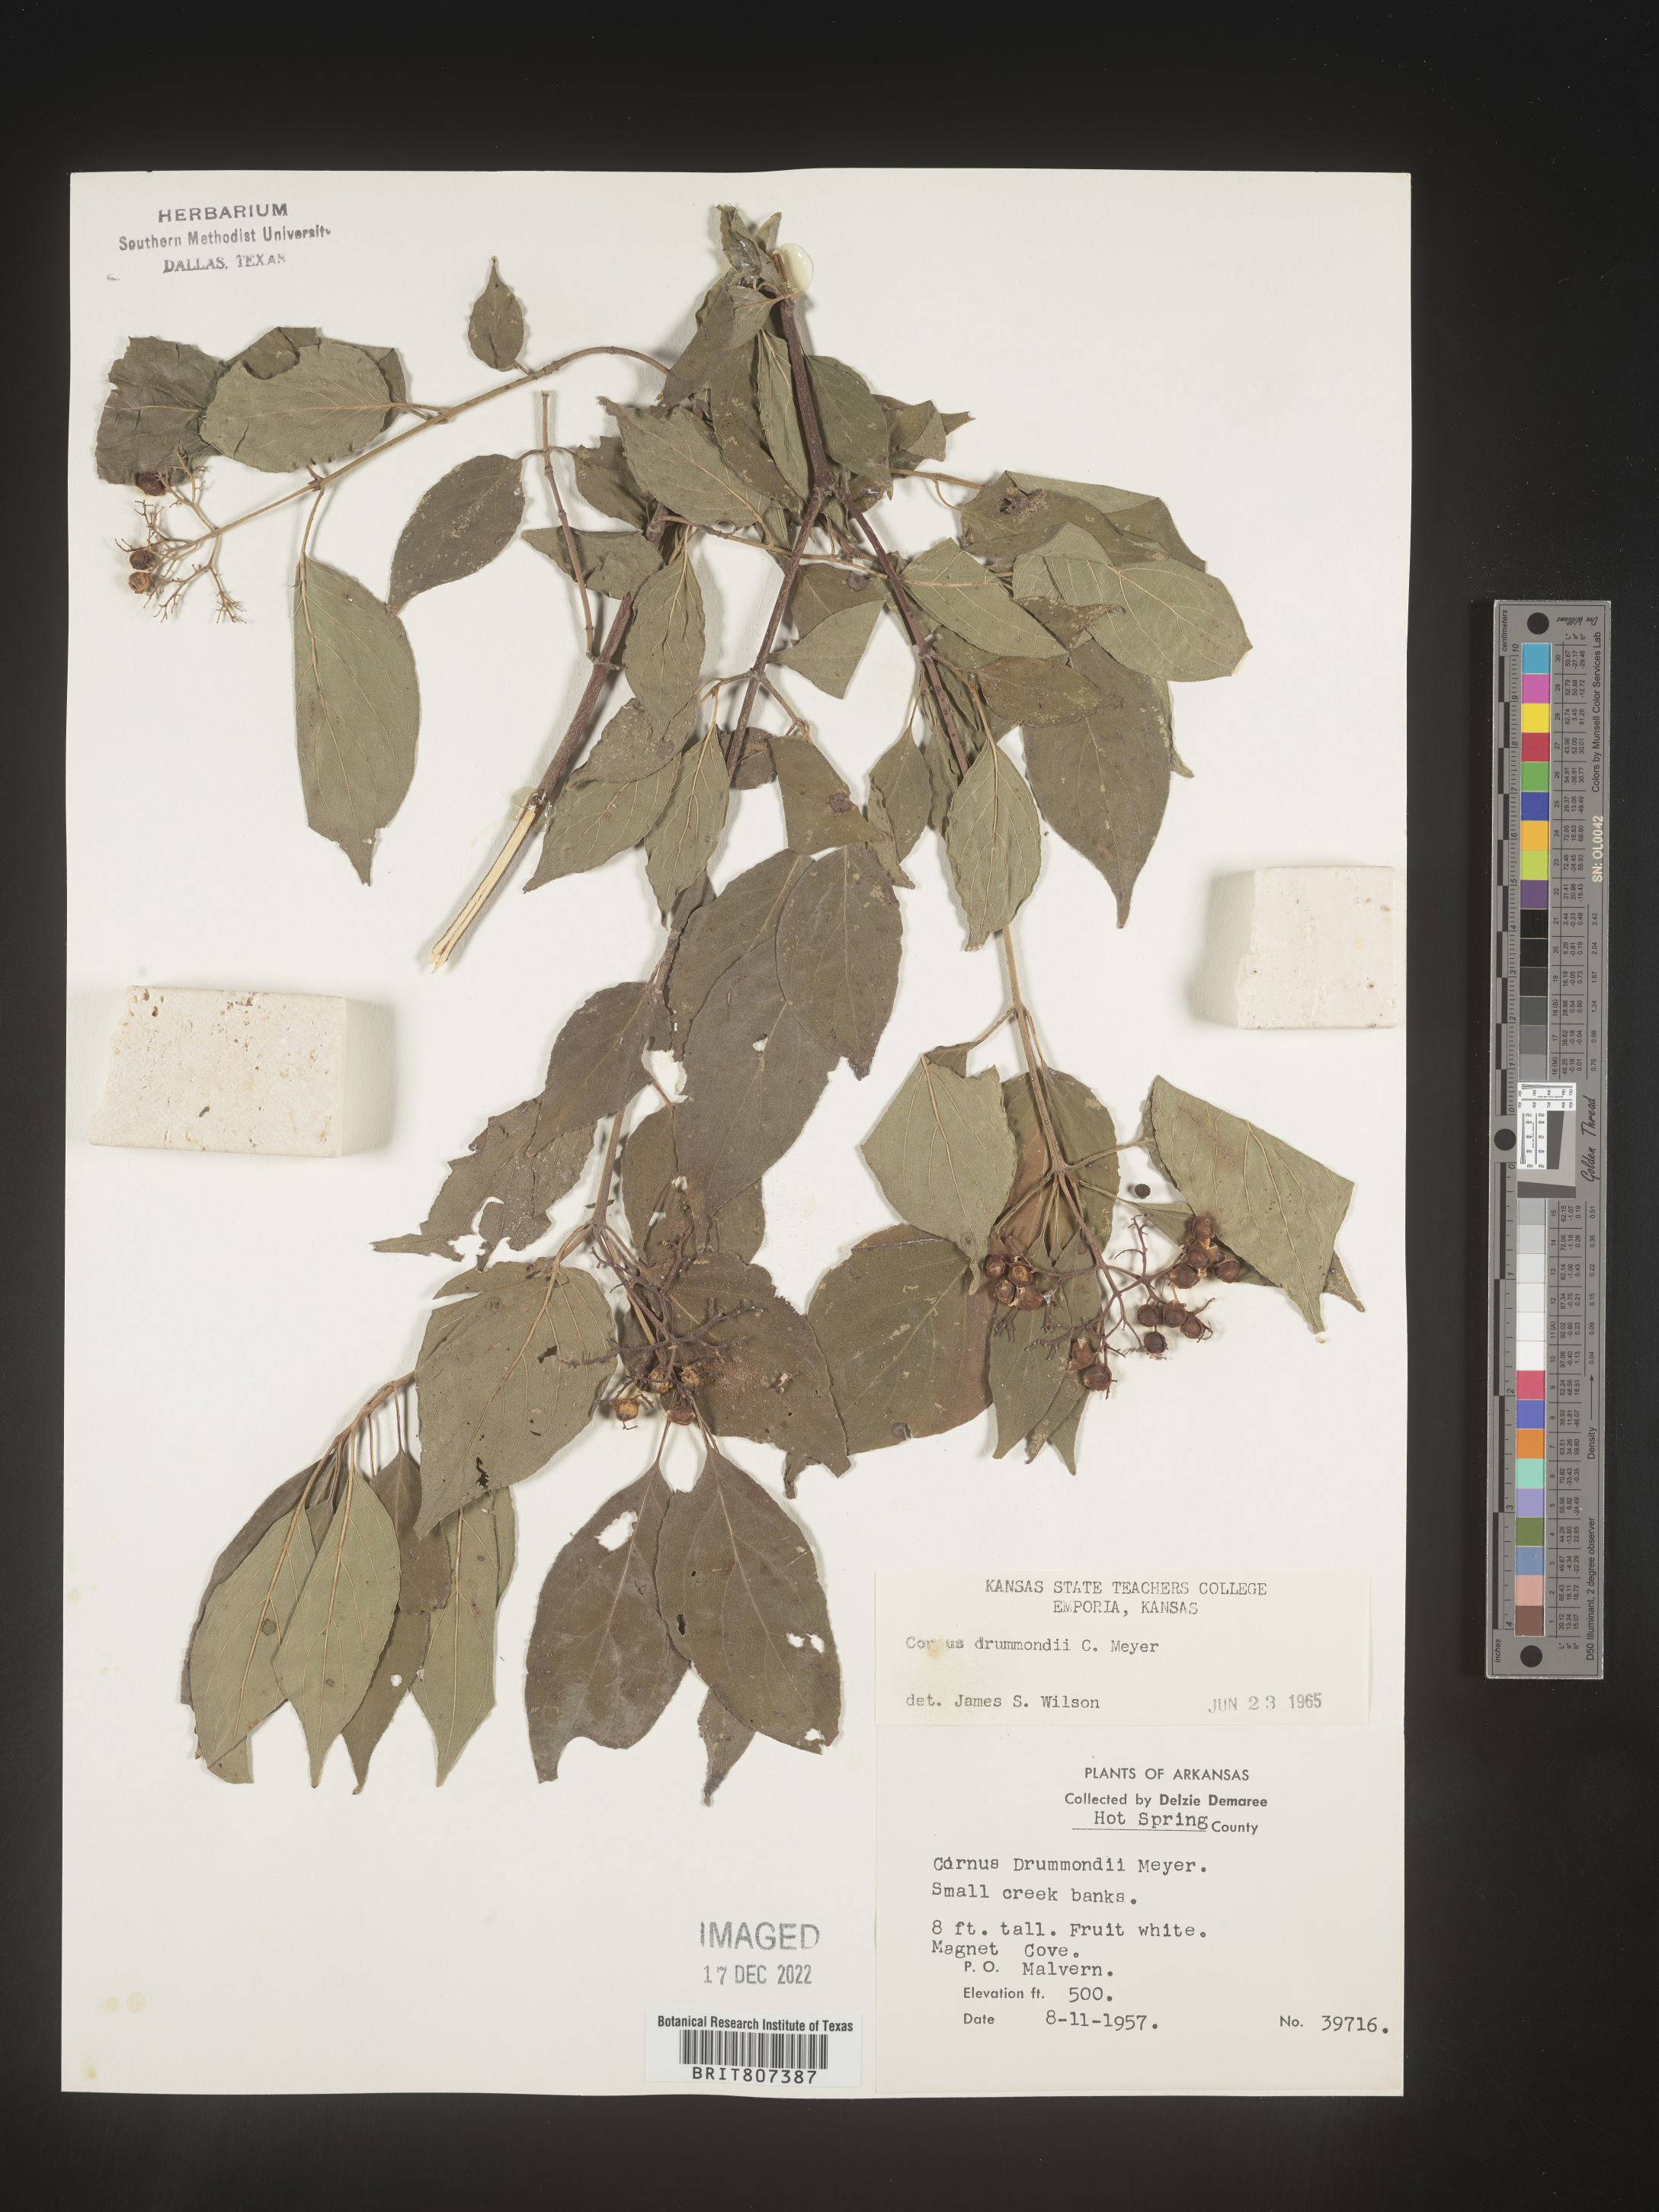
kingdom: Plantae
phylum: Tracheophyta
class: Magnoliopsida
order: Cornales
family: Cornaceae
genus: Cornus
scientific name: Cornus drummondii
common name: Rough-leaf dogwood
